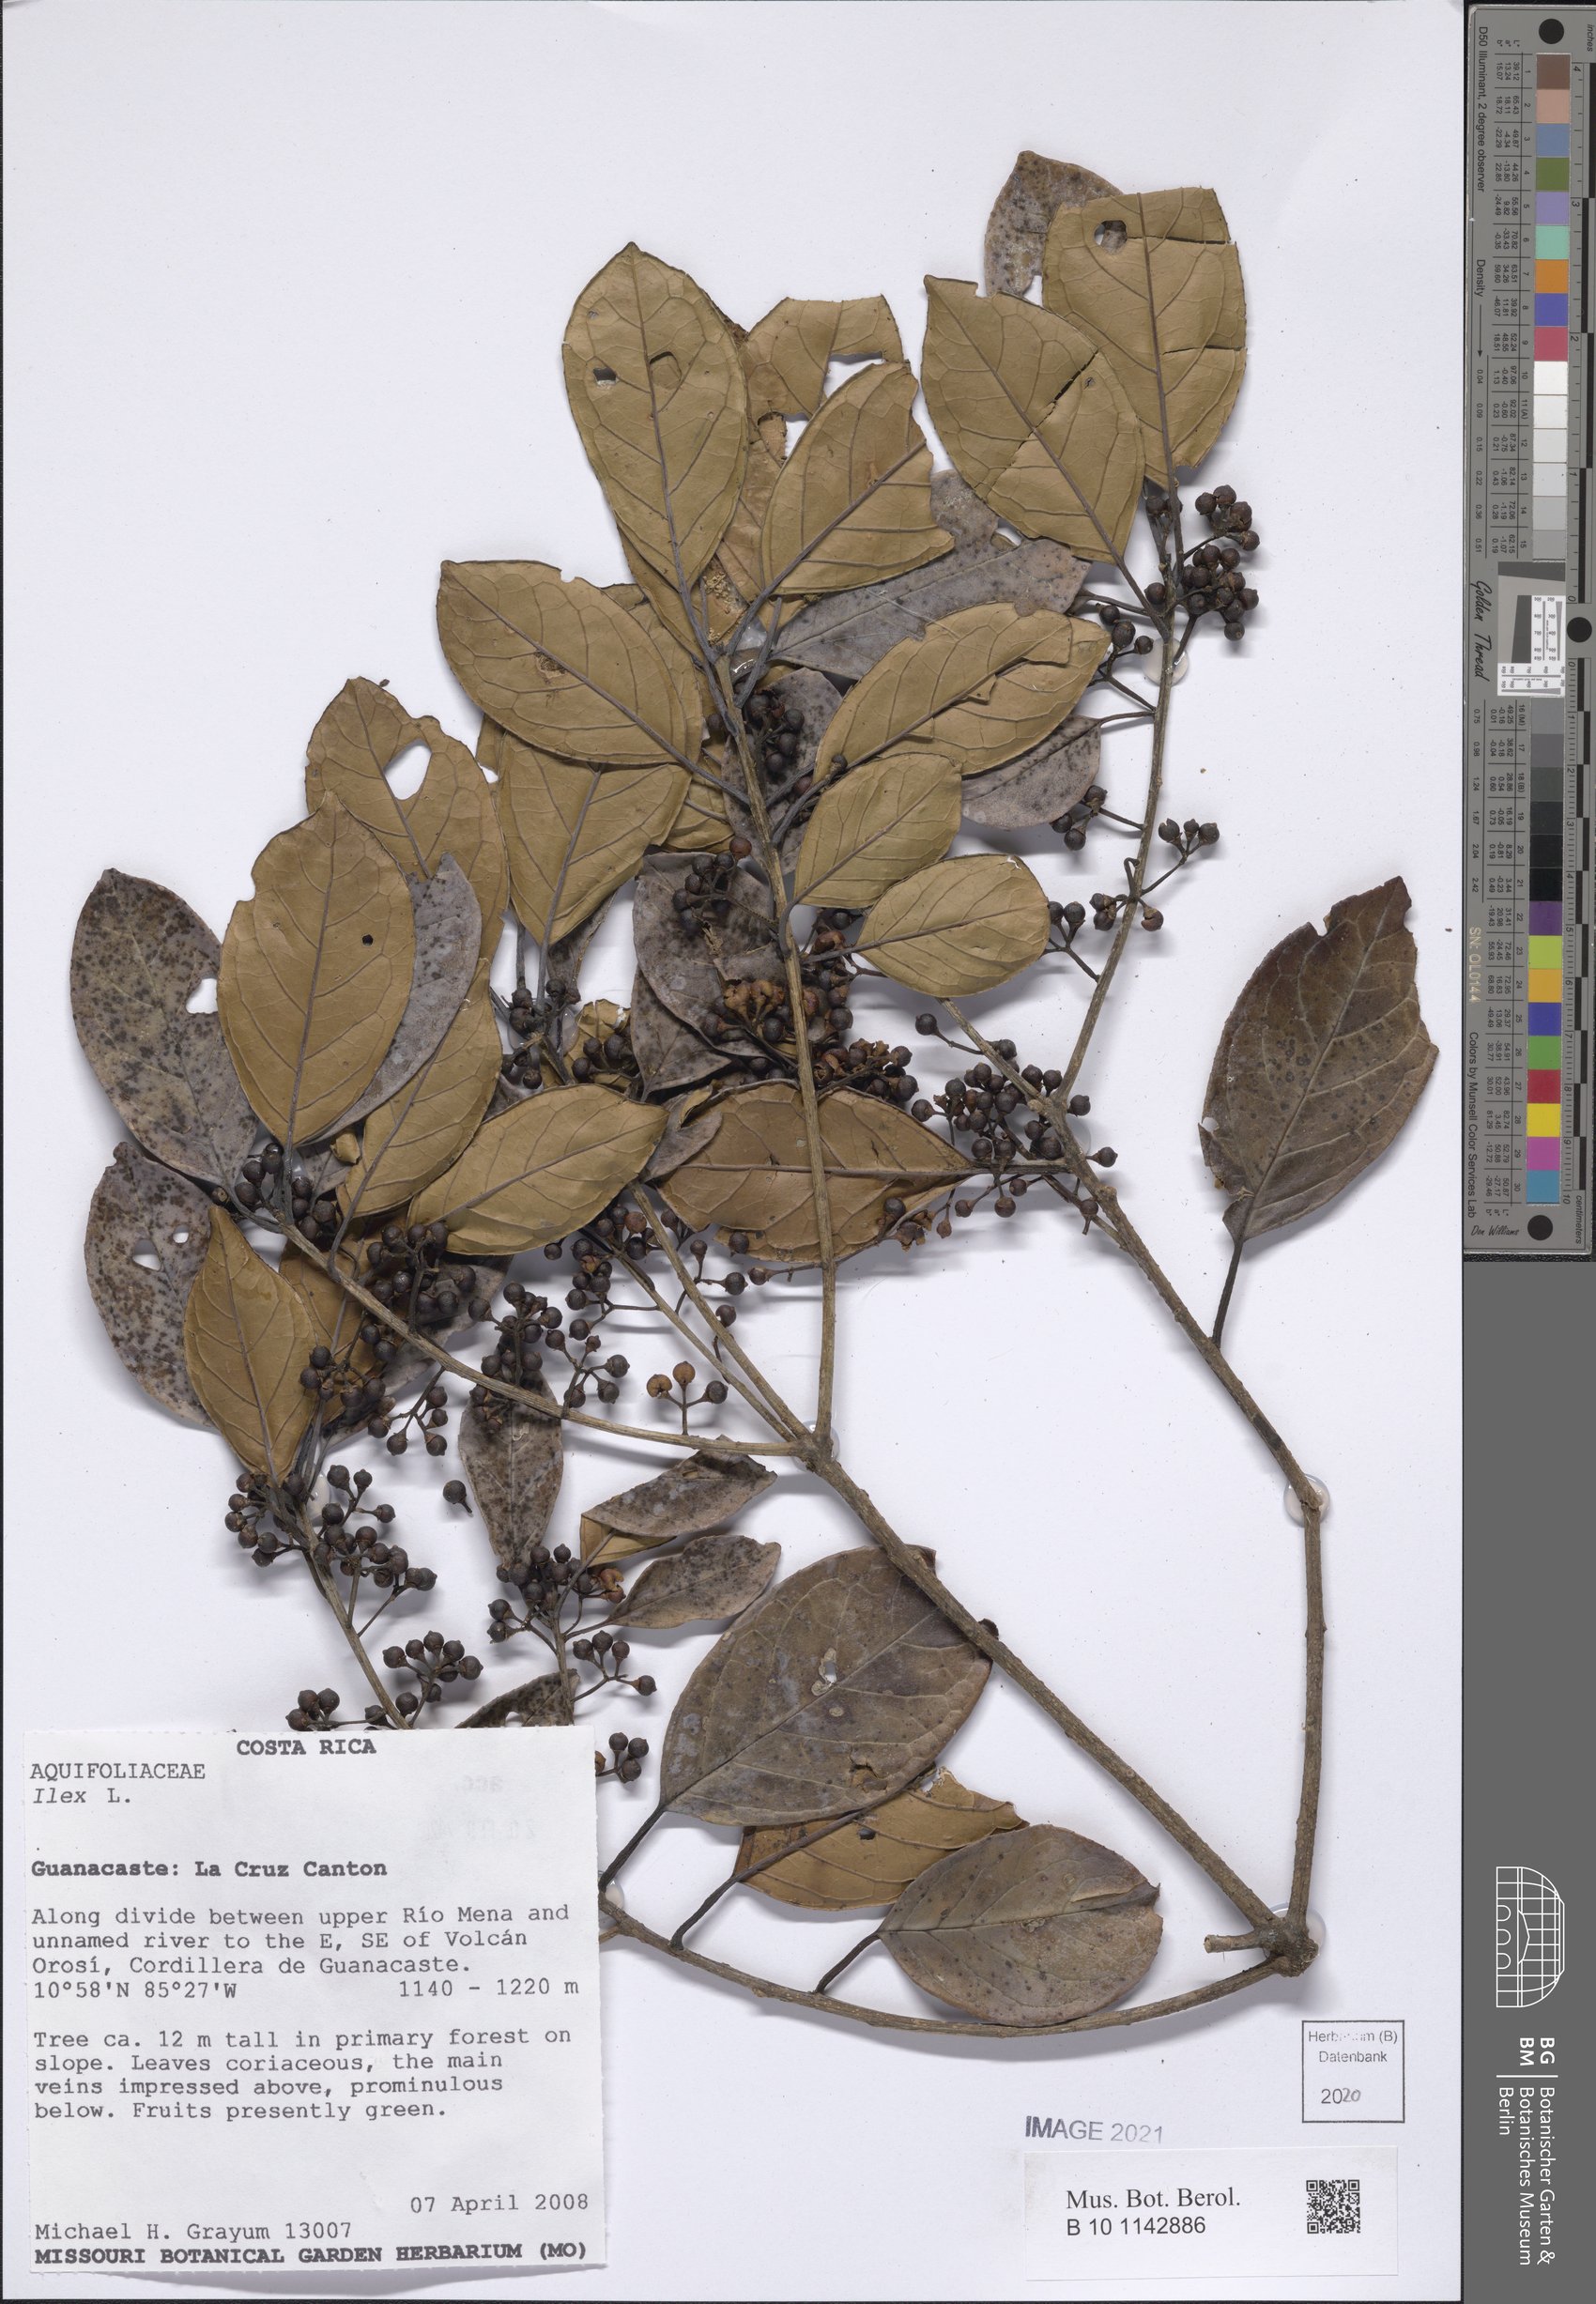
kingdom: Plantae
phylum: Tracheophyta
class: Magnoliopsida
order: Aquifoliales
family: Aquifoliaceae
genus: Ilex
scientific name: Ilex
